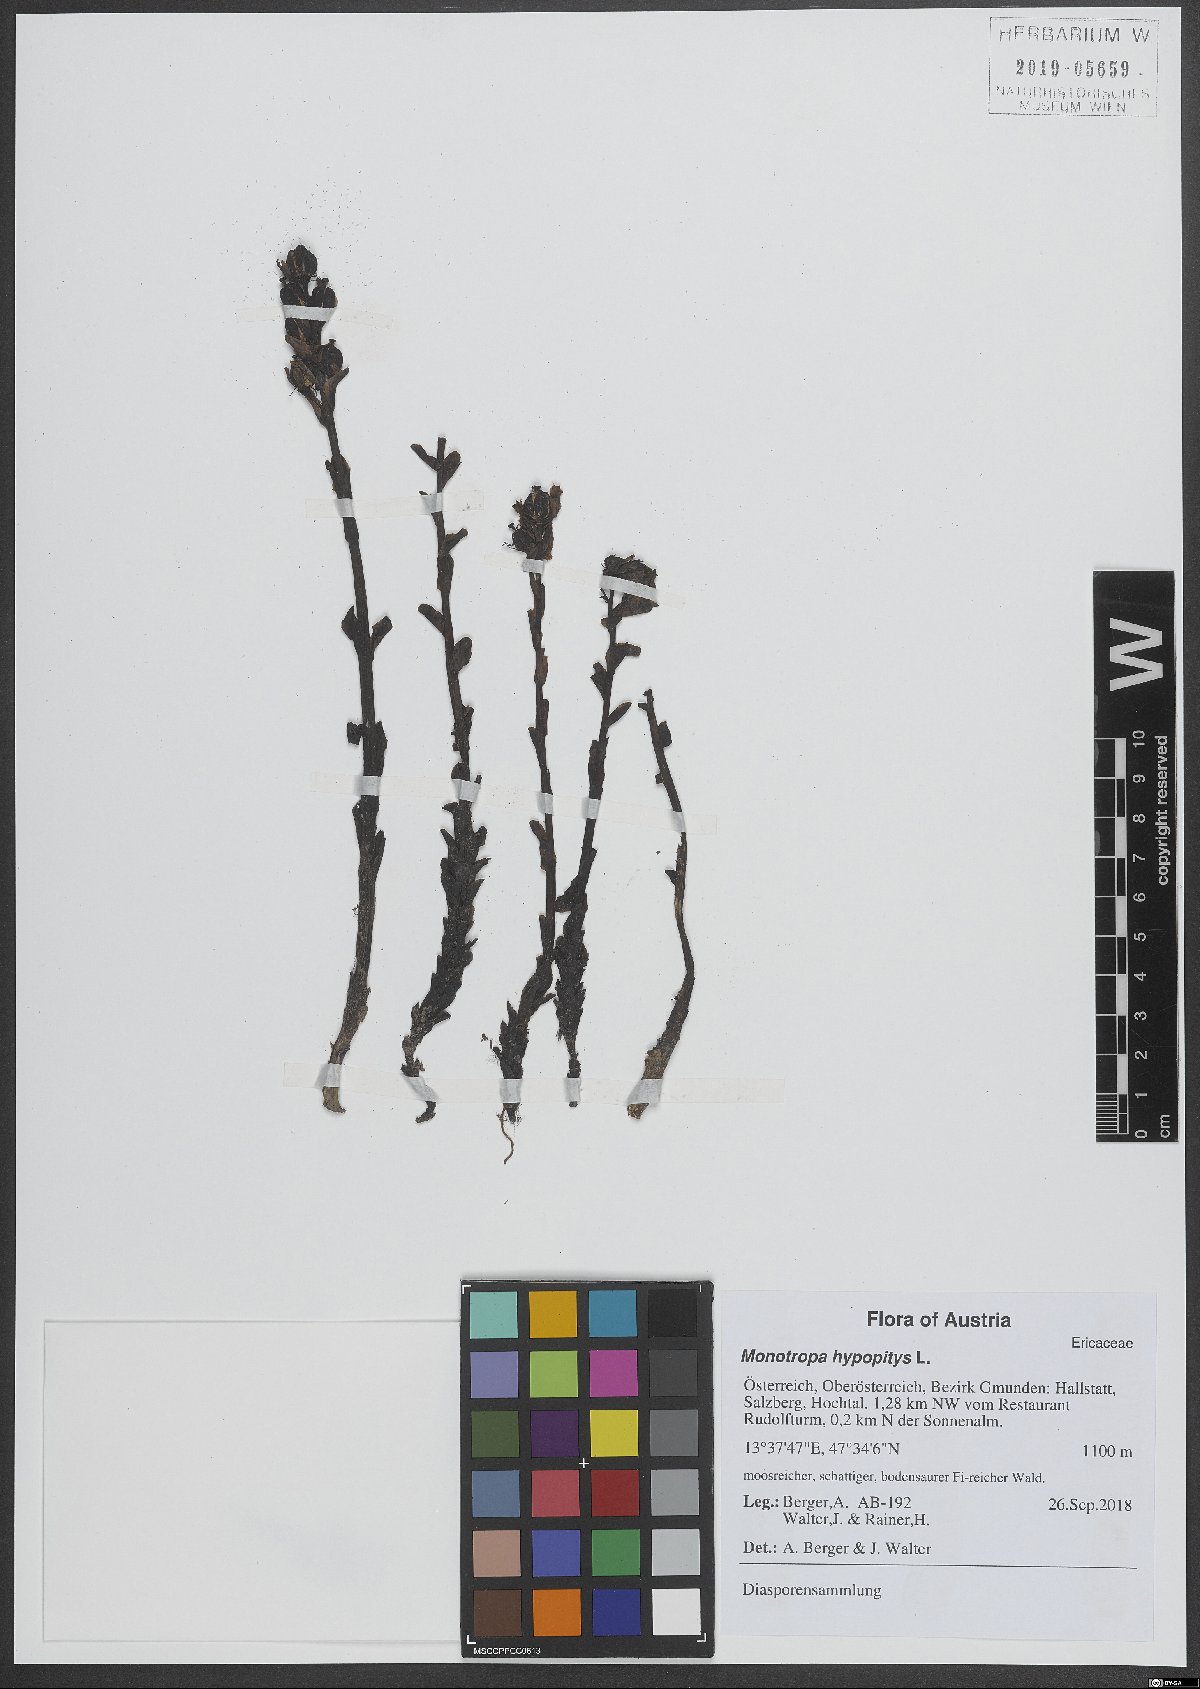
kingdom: Plantae
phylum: Tracheophyta
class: Magnoliopsida
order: Ericales
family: Ericaceae
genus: Hypopitys
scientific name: Hypopitys monotropa
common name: Yellow bird's-nest
